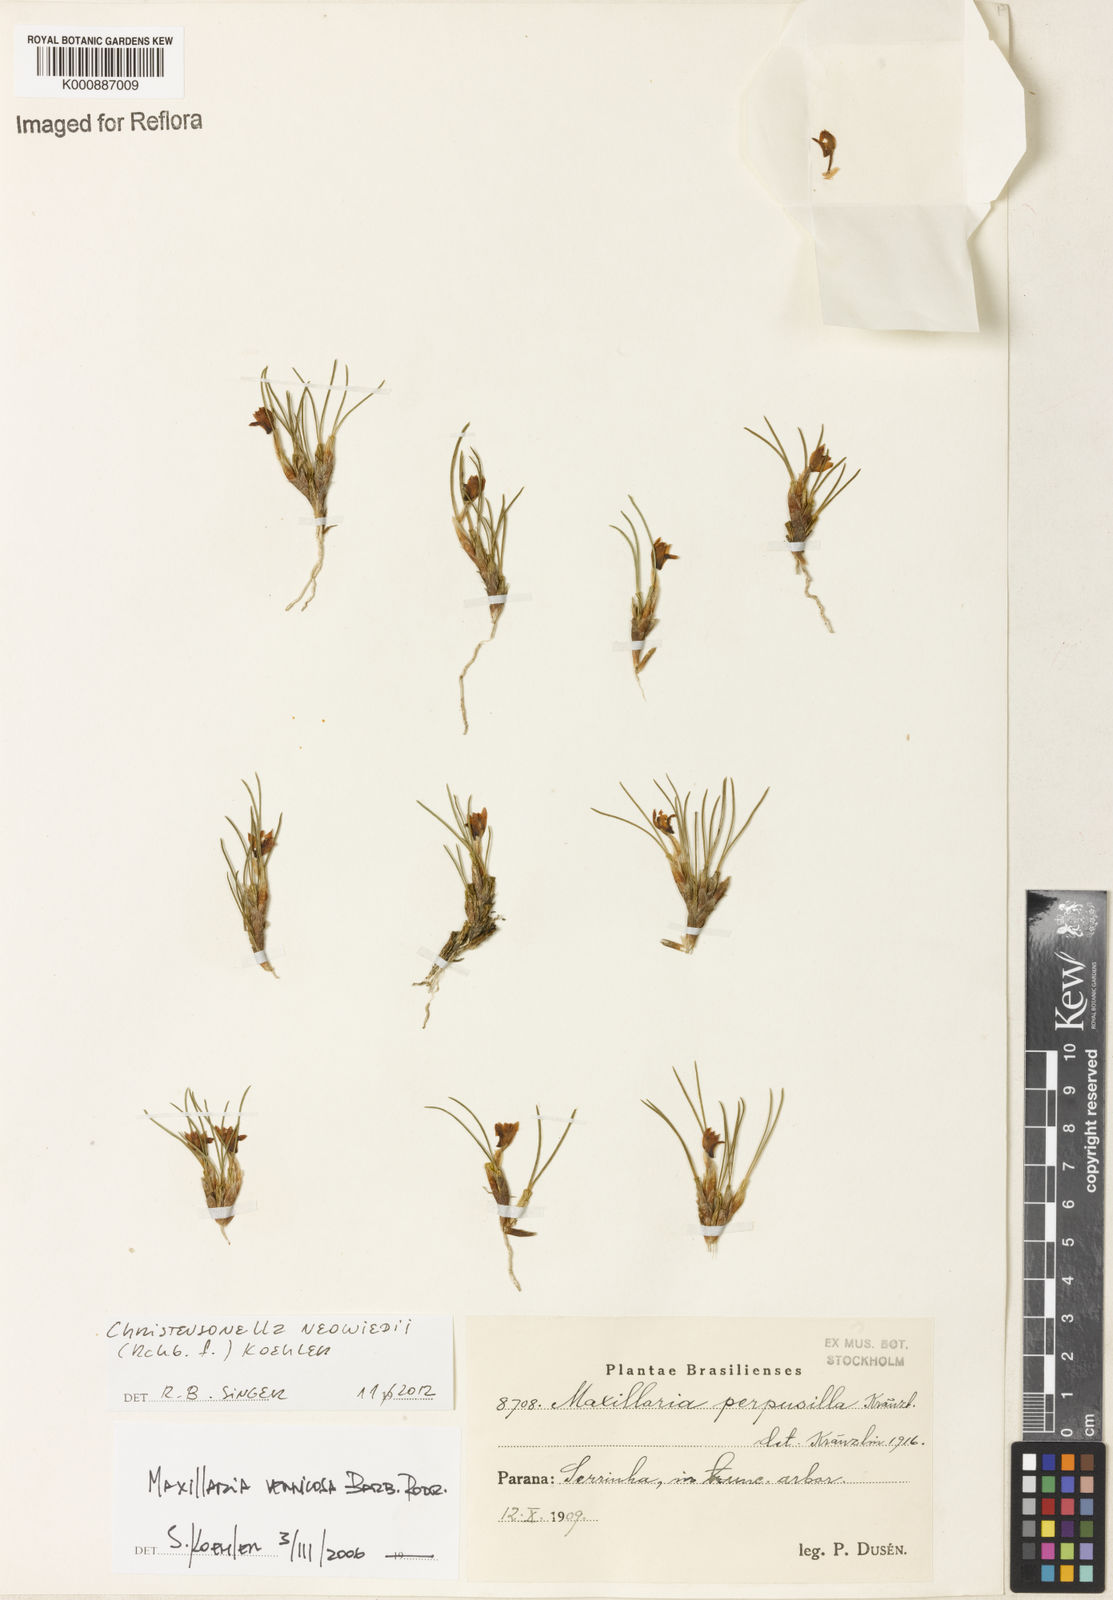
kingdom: Plantae
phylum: Tracheophyta
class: Liliopsida
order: Asparagales
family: Orchidaceae
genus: Maxillaria
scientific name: Maxillaria neowiedii
